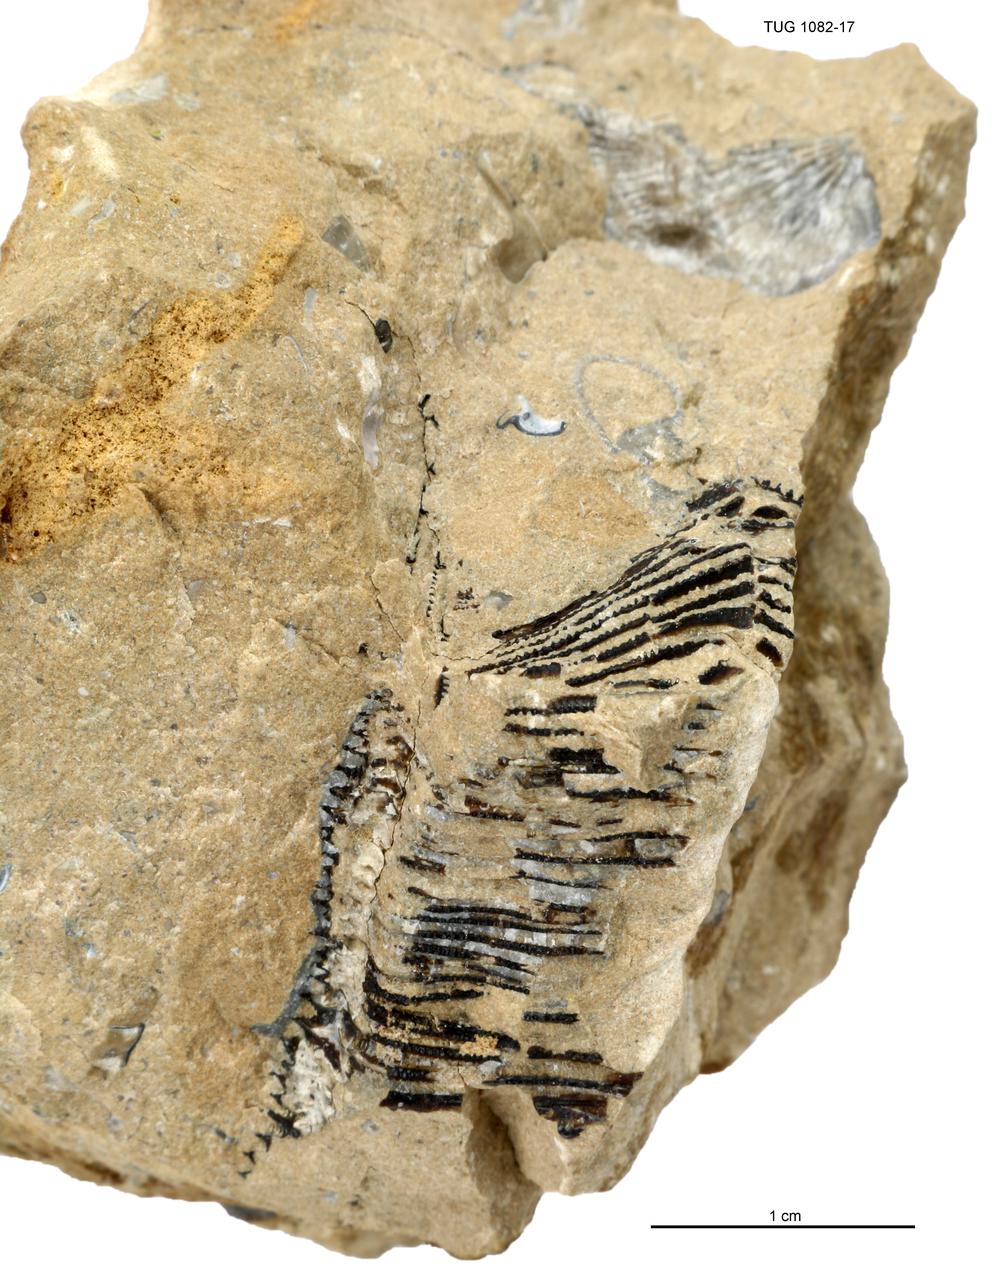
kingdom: Animalia
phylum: Cnidaria
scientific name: Cnidaria
